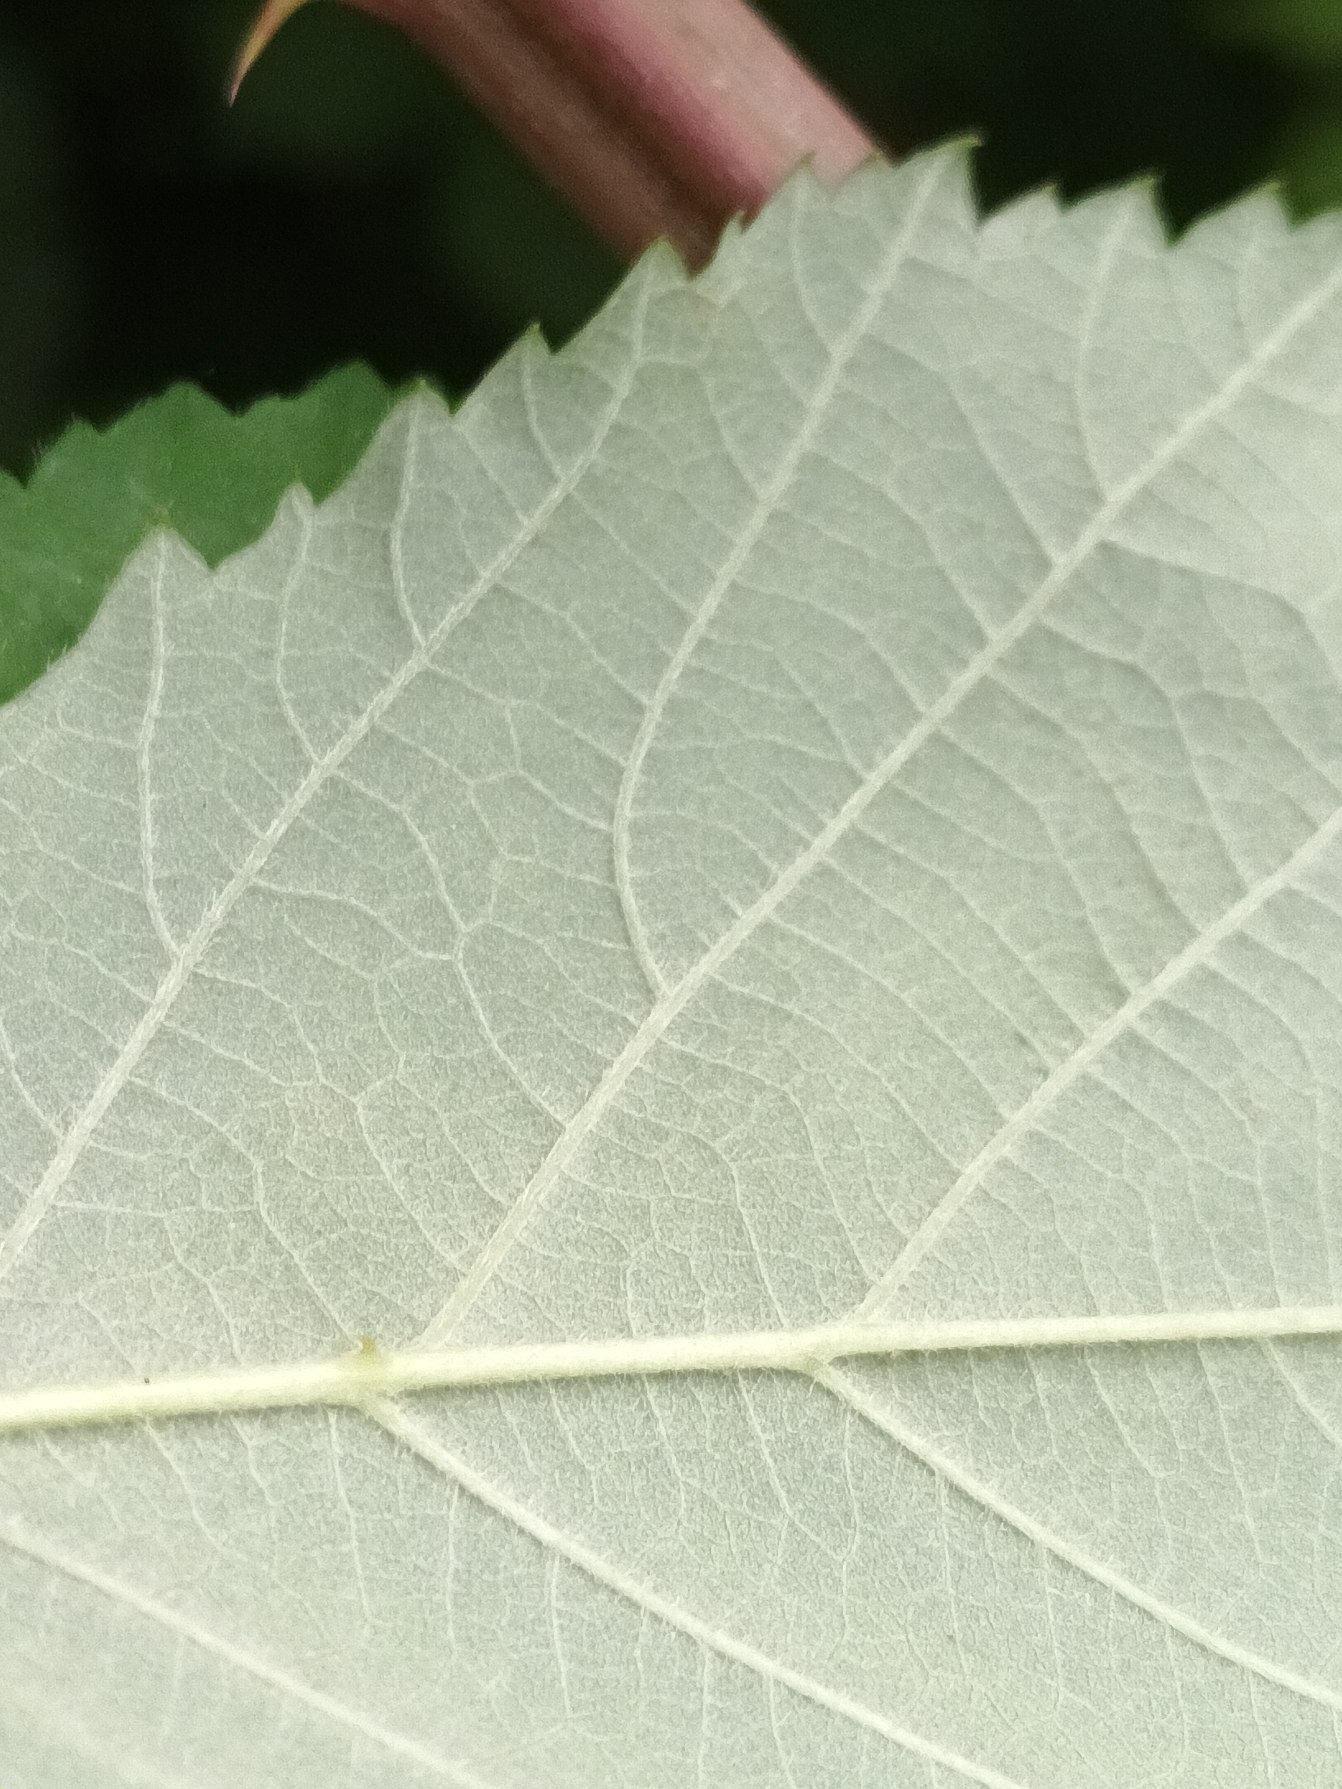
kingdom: Plantae
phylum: Tracheophyta
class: Magnoliopsida
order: Rosales
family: Rosaceae
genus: Rubus
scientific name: Rubus
